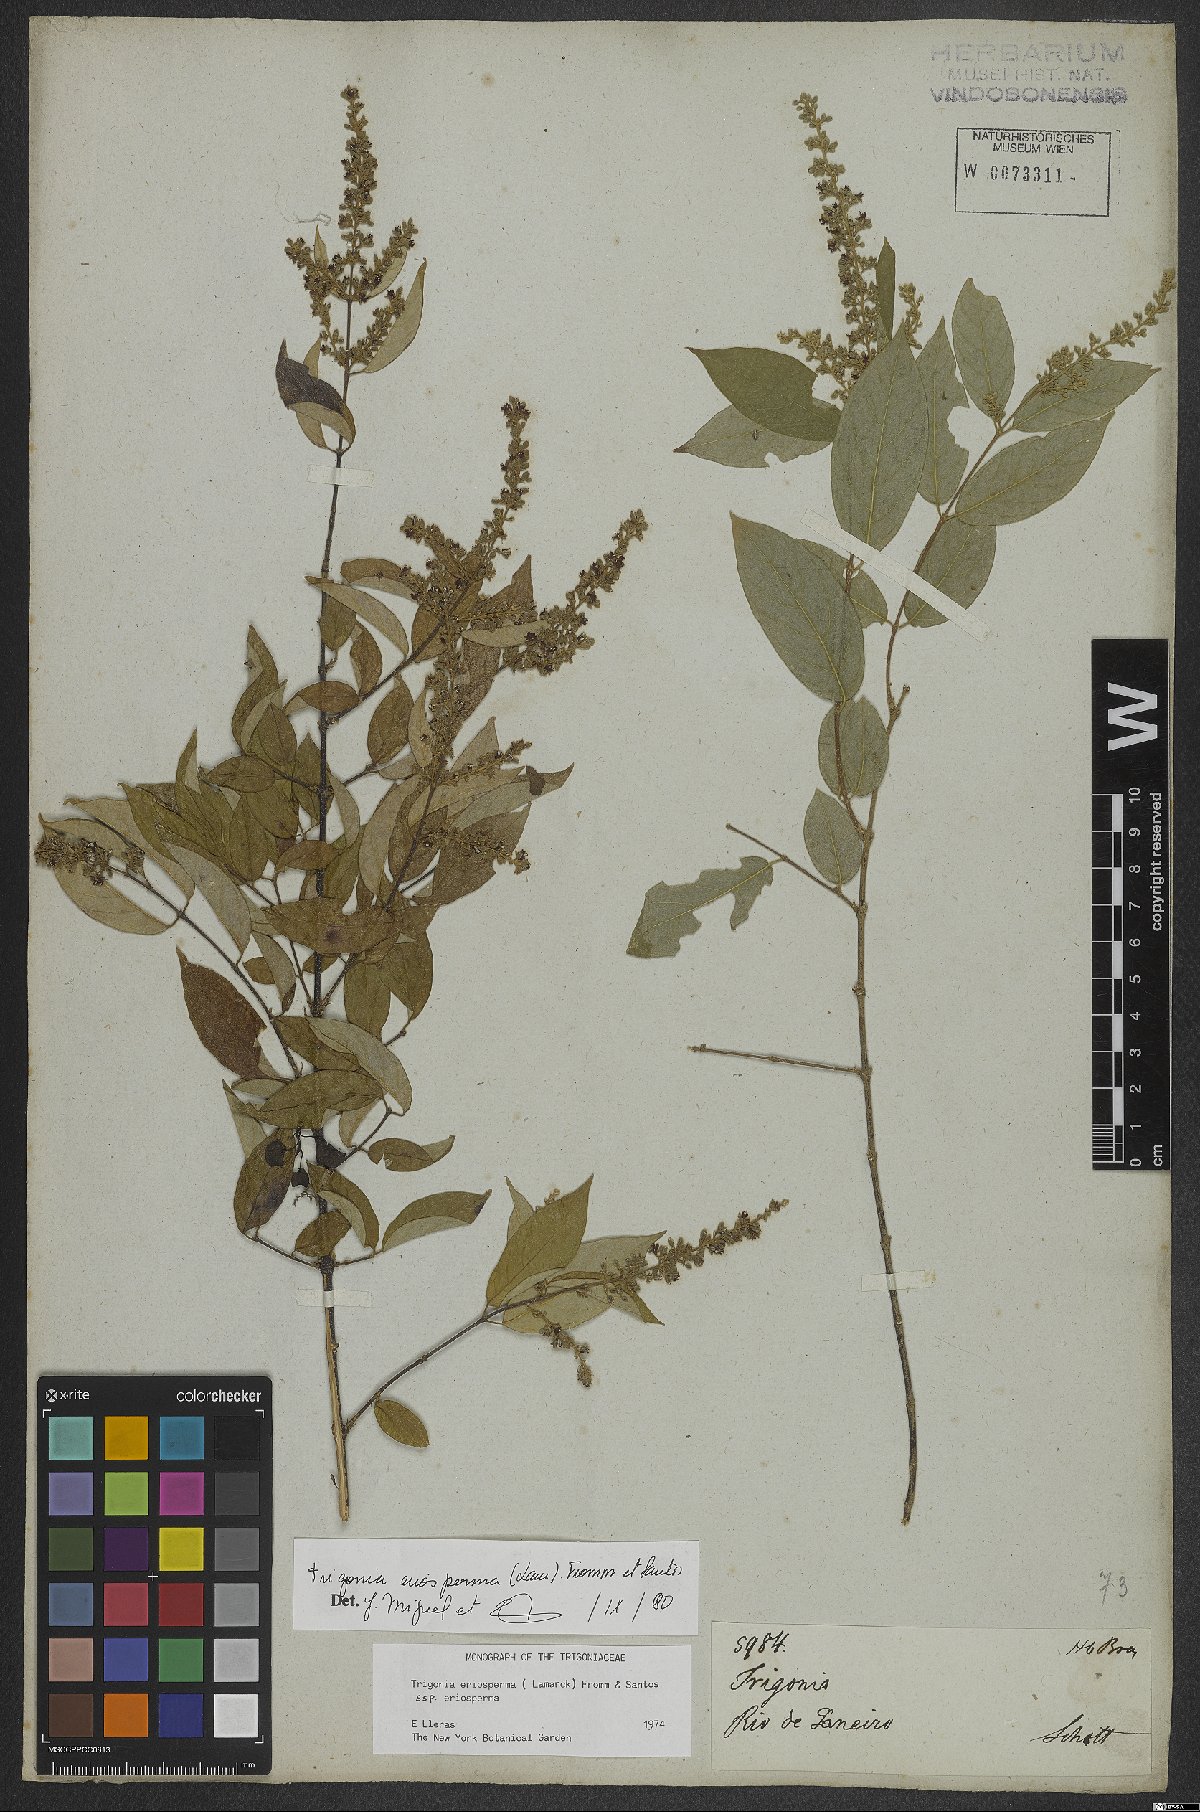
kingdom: Plantae
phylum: Tracheophyta
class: Magnoliopsida
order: Malpighiales
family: Trigoniaceae
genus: Trigonia
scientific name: Trigonia eriosperma
